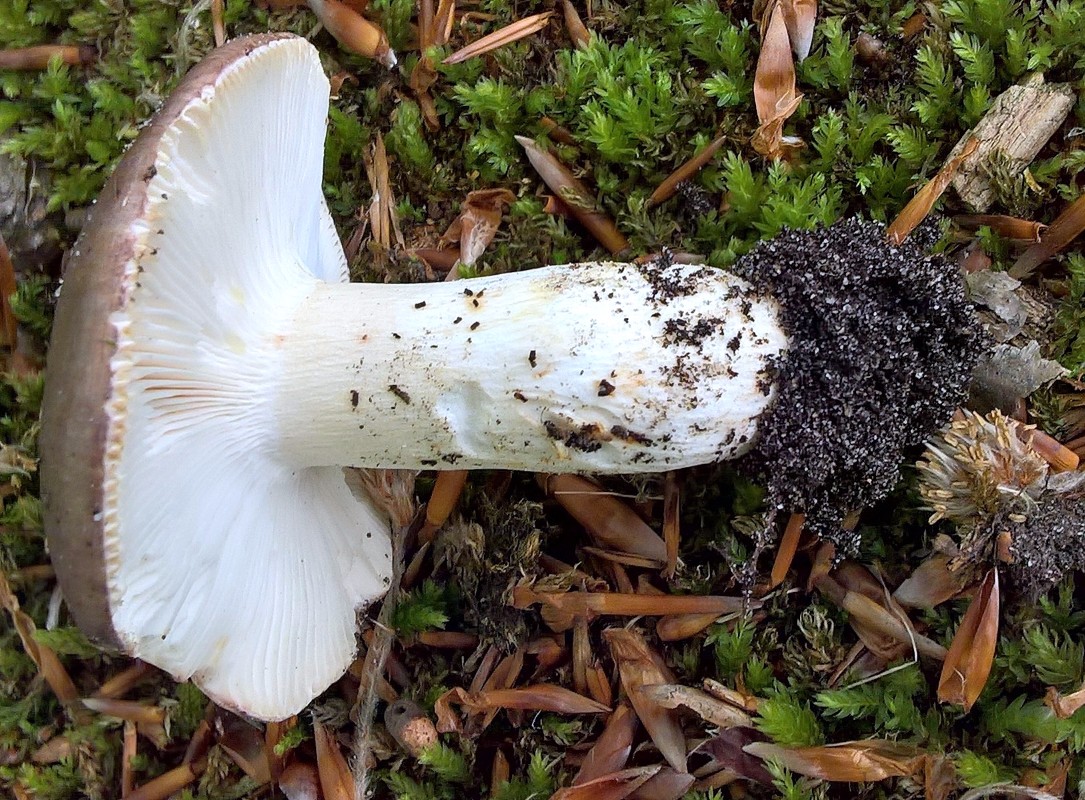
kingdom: Fungi
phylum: Basidiomycota
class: Agaricomycetes
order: Russulales
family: Russulaceae
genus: Russula
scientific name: Russula vesca
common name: spiselig skørhat
